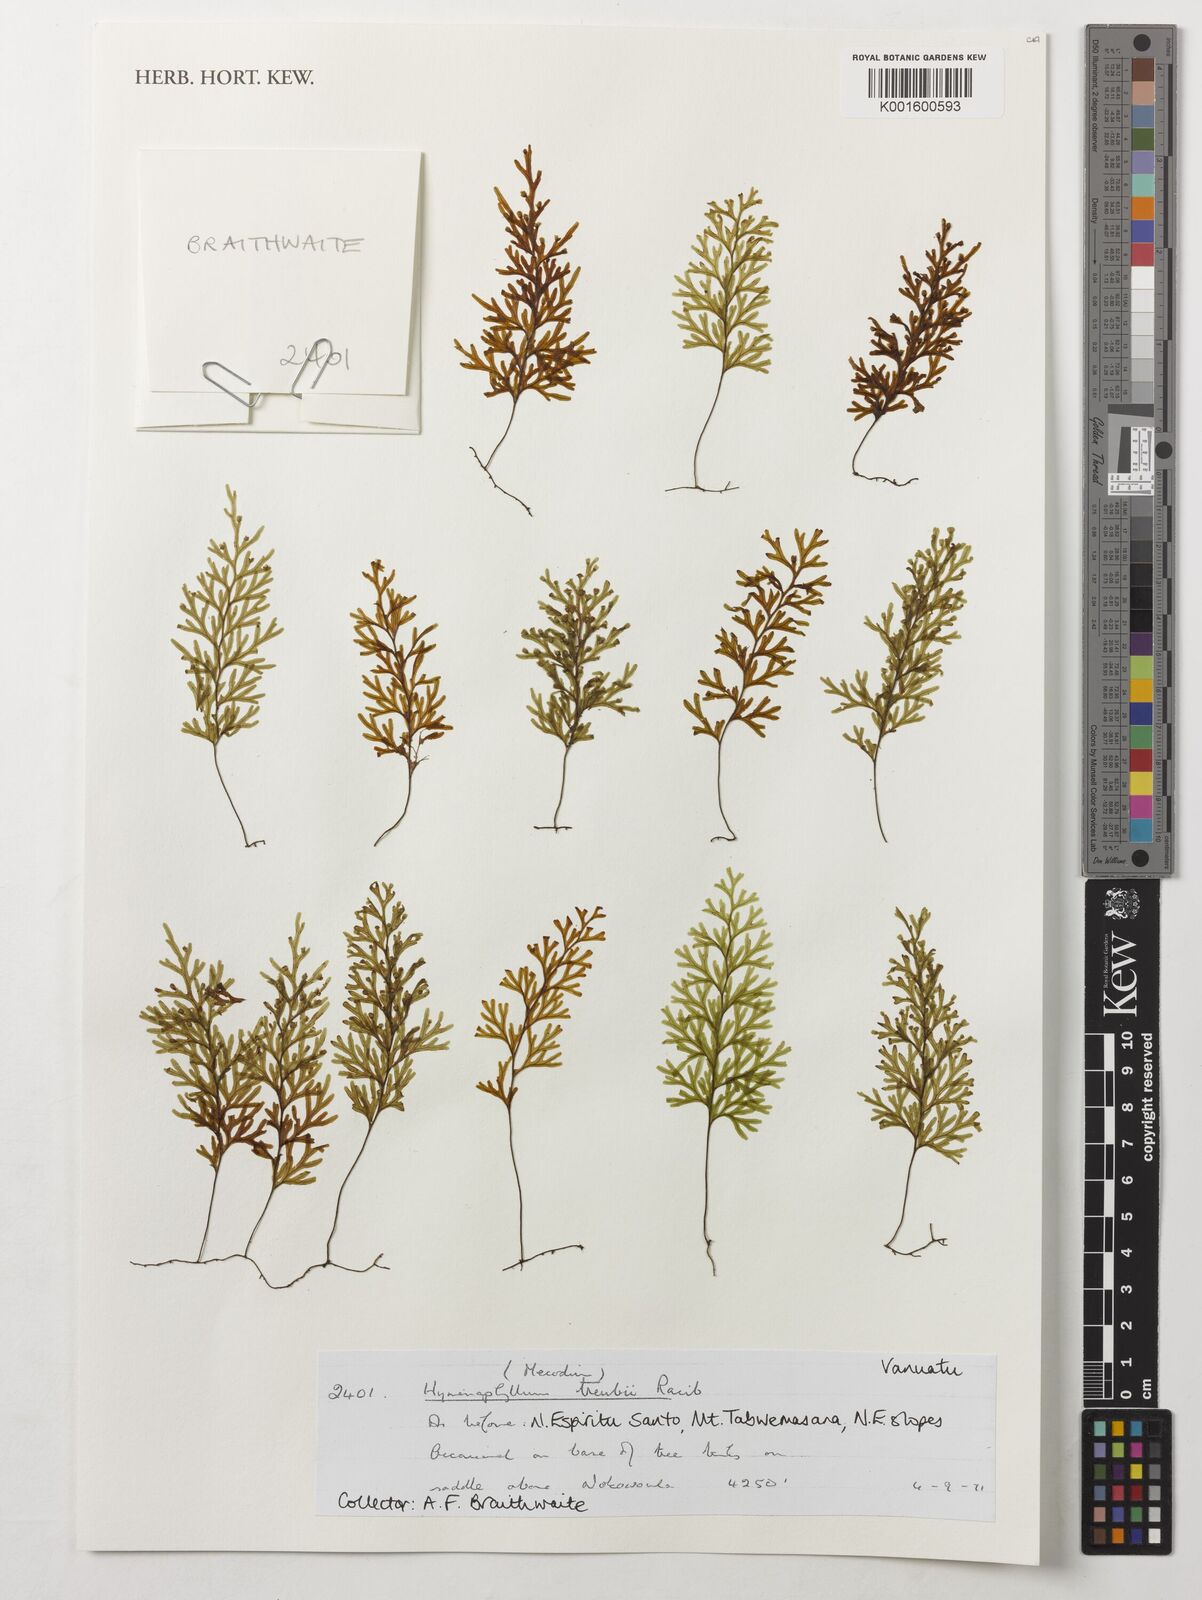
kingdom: Plantae
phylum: Tracheophyta
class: Polypodiopsida
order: Hymenophyllales
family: Hymenophyllaceae
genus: Hymenophyllum
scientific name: Hymenophyllum treubii
